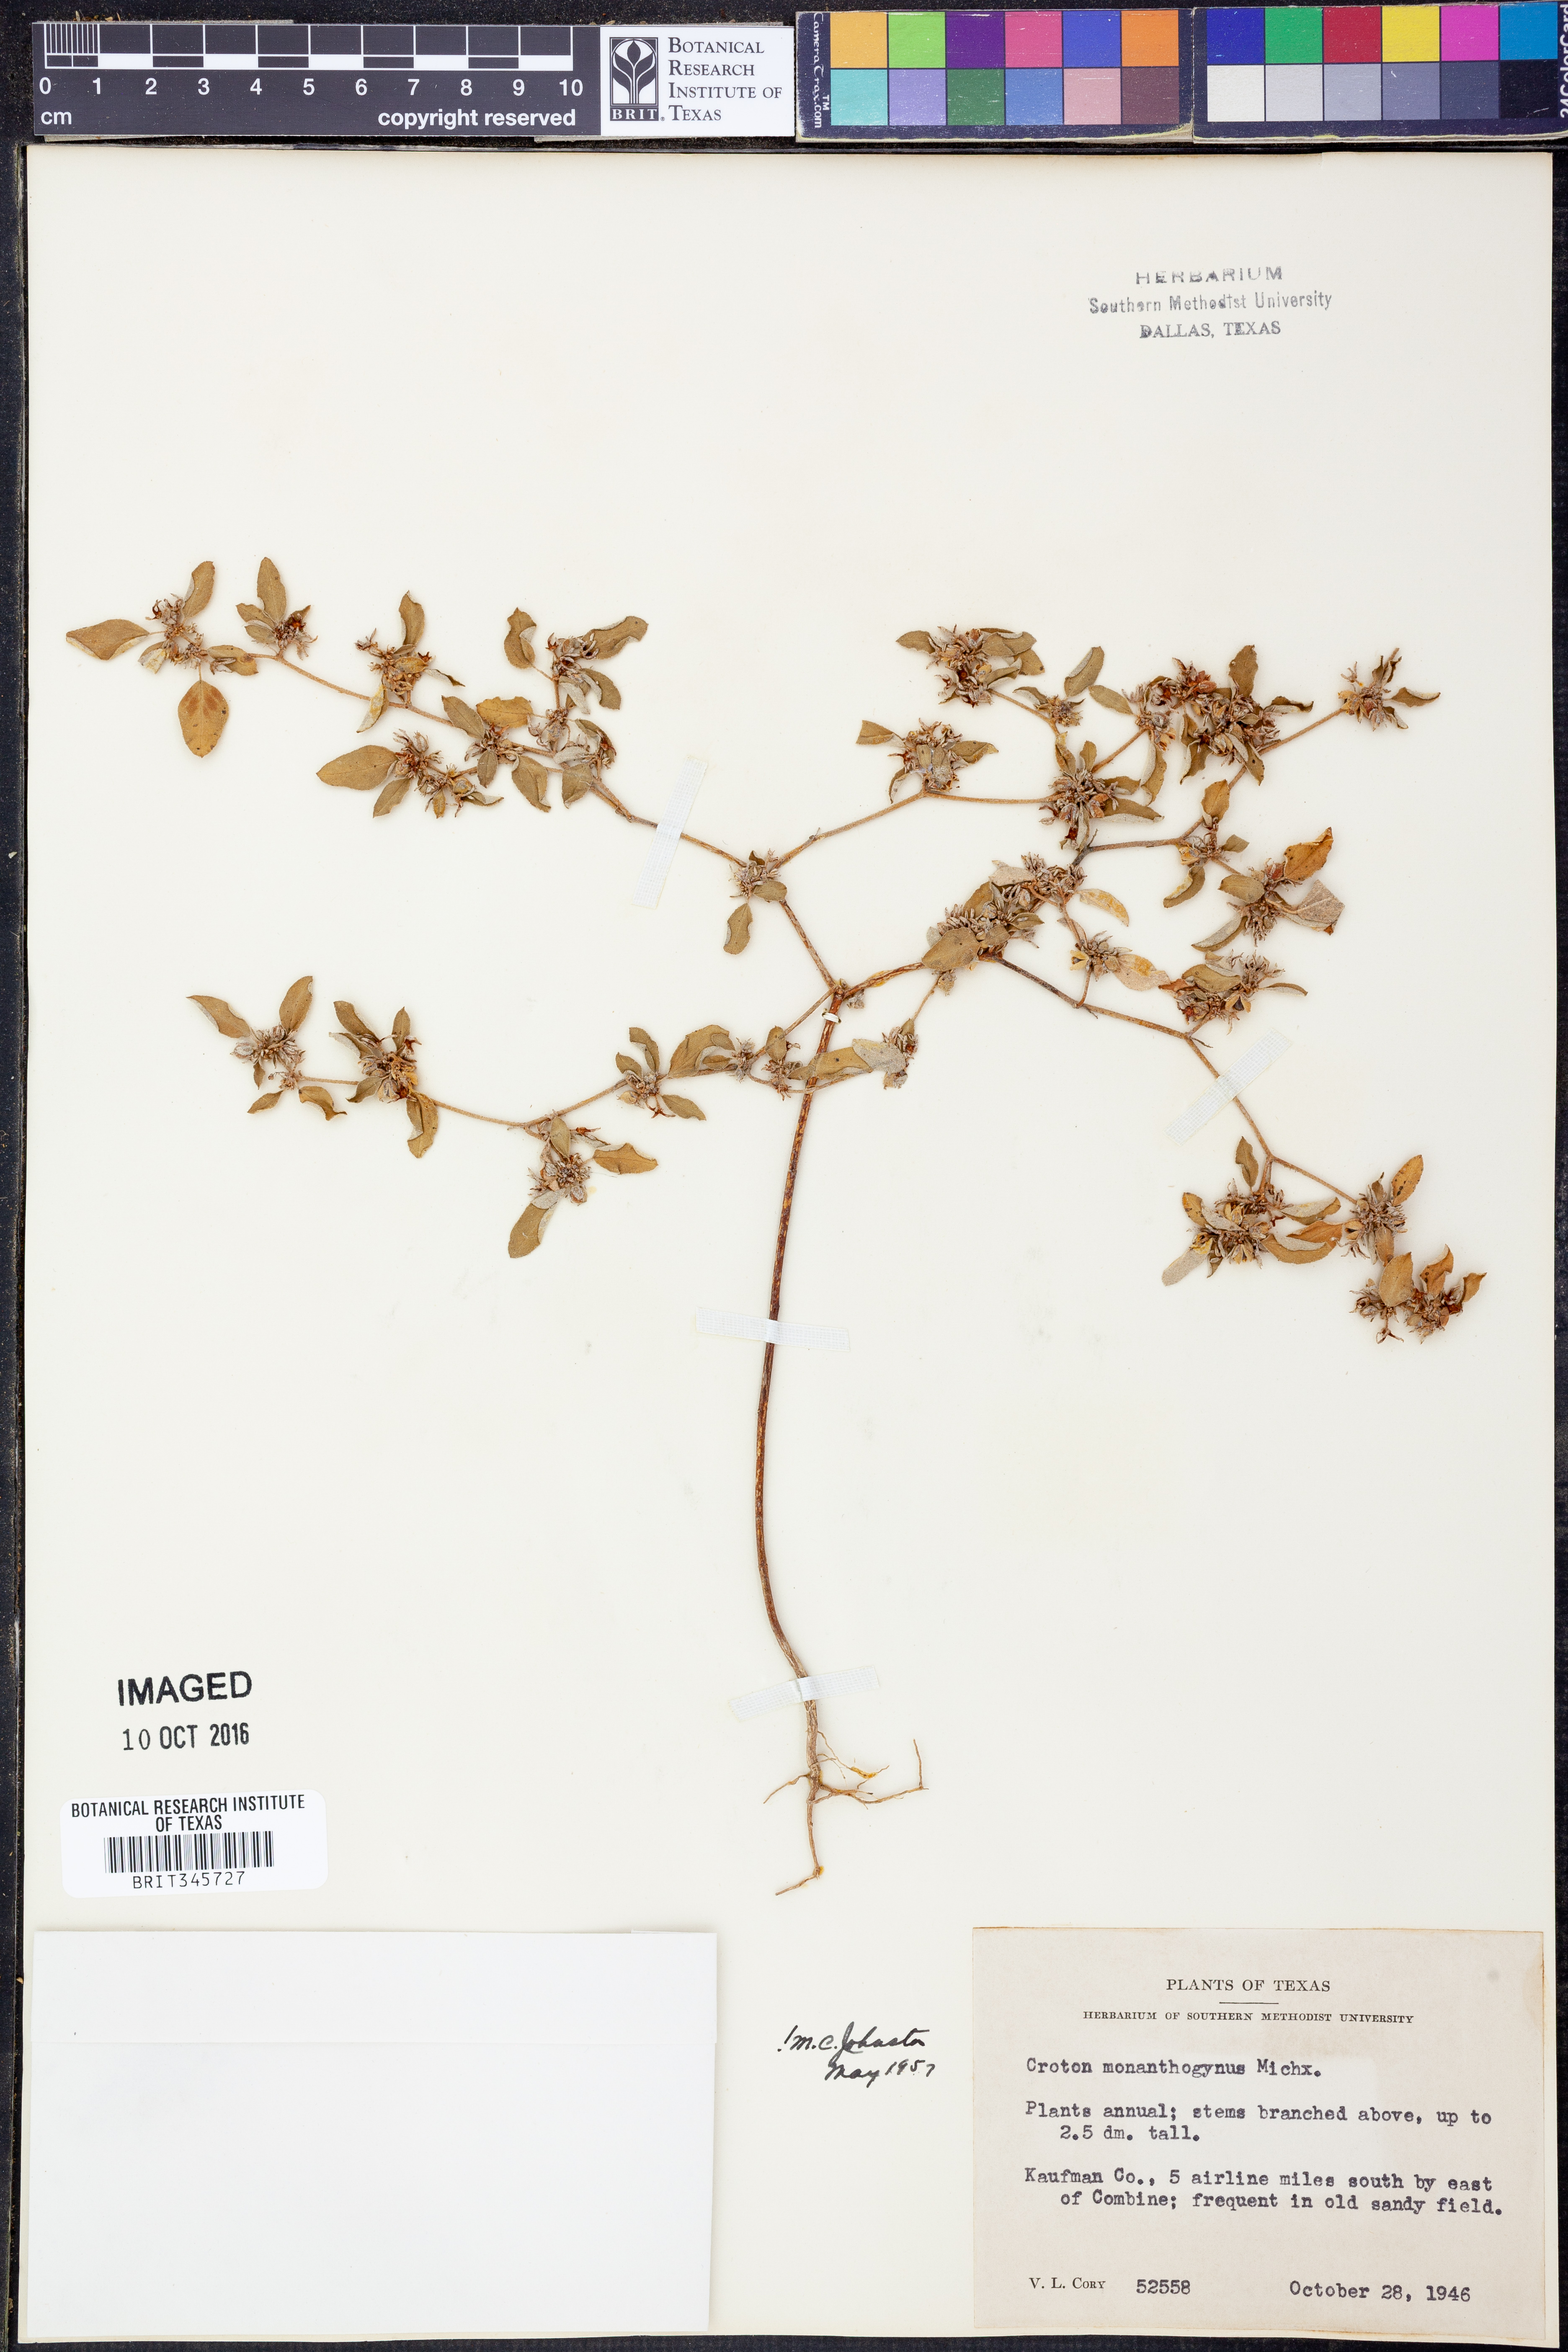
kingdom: Plantae
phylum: Tracheophyta
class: Magnoliopsida
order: Malpighiales
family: Euphorbiaceae
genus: Croton
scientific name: Croton monanthogynus
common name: One-seed croton
